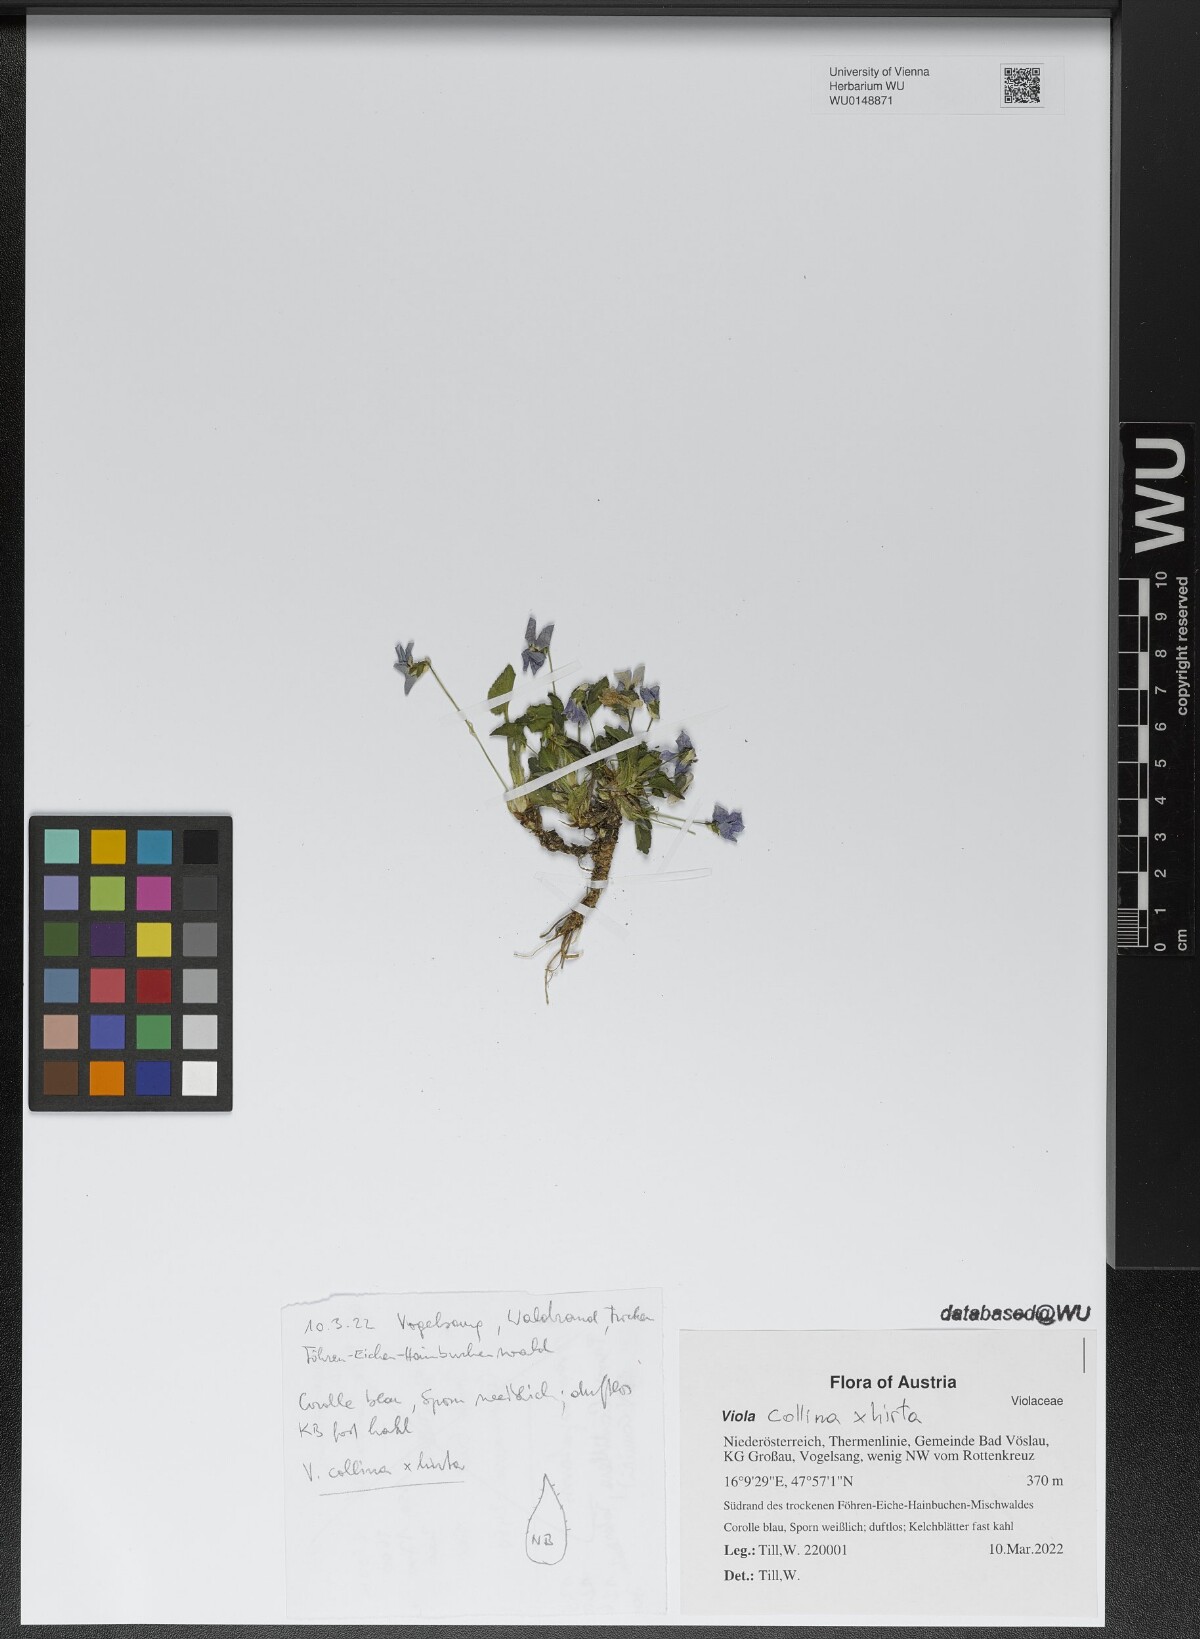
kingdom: Plantae
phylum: Tracheophyta
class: Magnoliopsida
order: Malpighiales
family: Violaceae
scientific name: Violaceae
